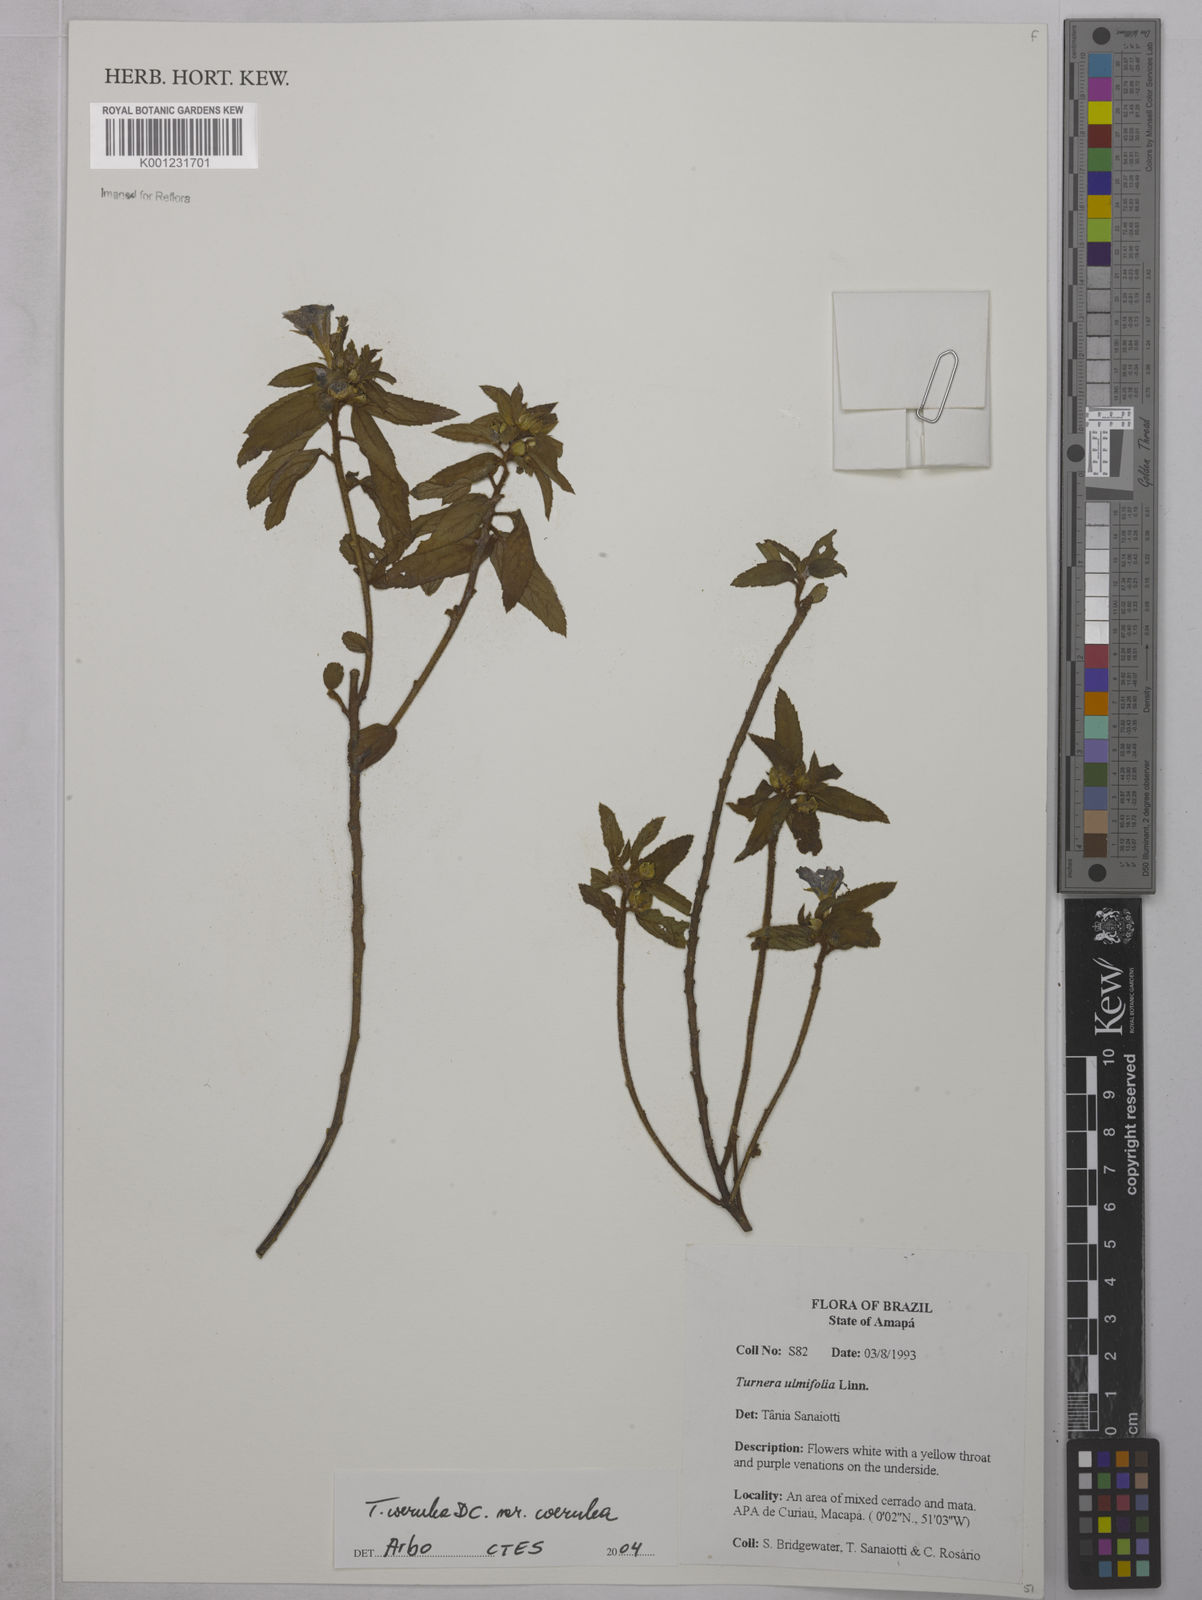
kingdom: Plantae
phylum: Tracheophyta
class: Magnoliopsida
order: Malpighiales
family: Turneraceae
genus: Turnera
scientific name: Turnera
